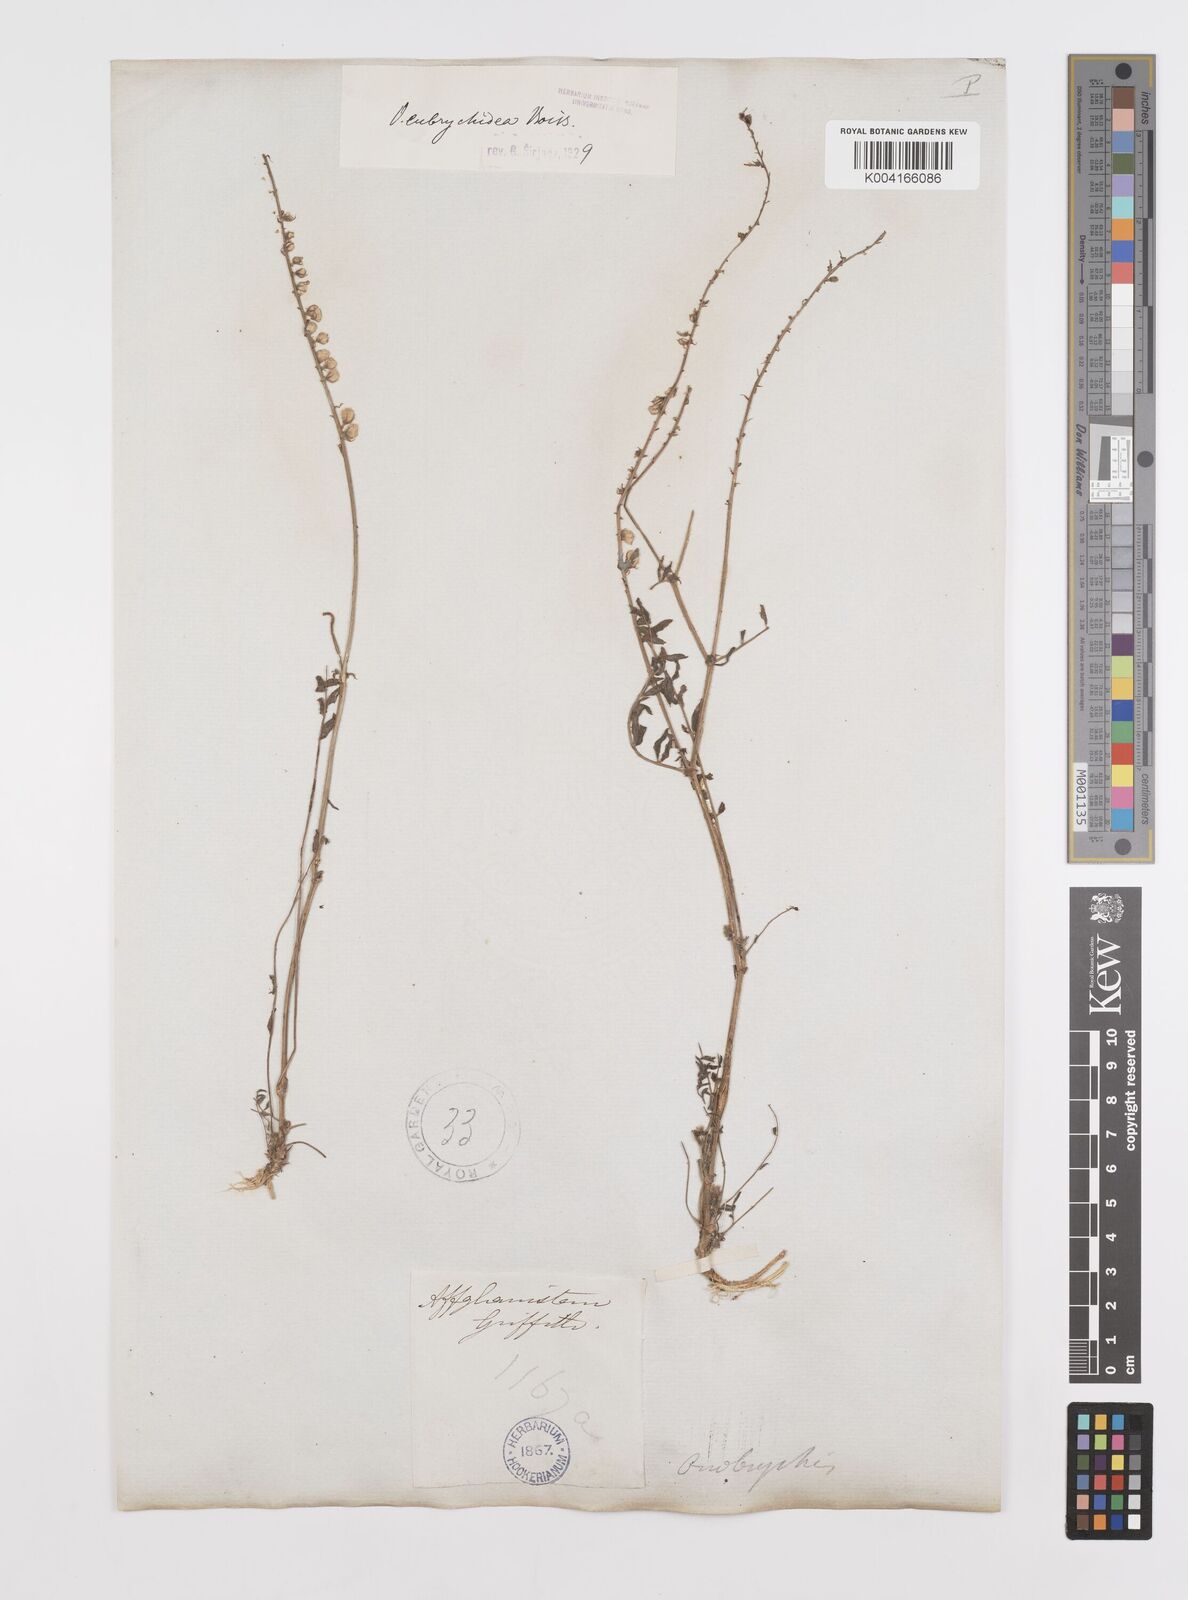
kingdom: Plantae
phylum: Tracheophyta
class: Magnoliopsida
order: Fabales
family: Fabaceae
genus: Onobrychis
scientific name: Onobrychis eubrychidea
